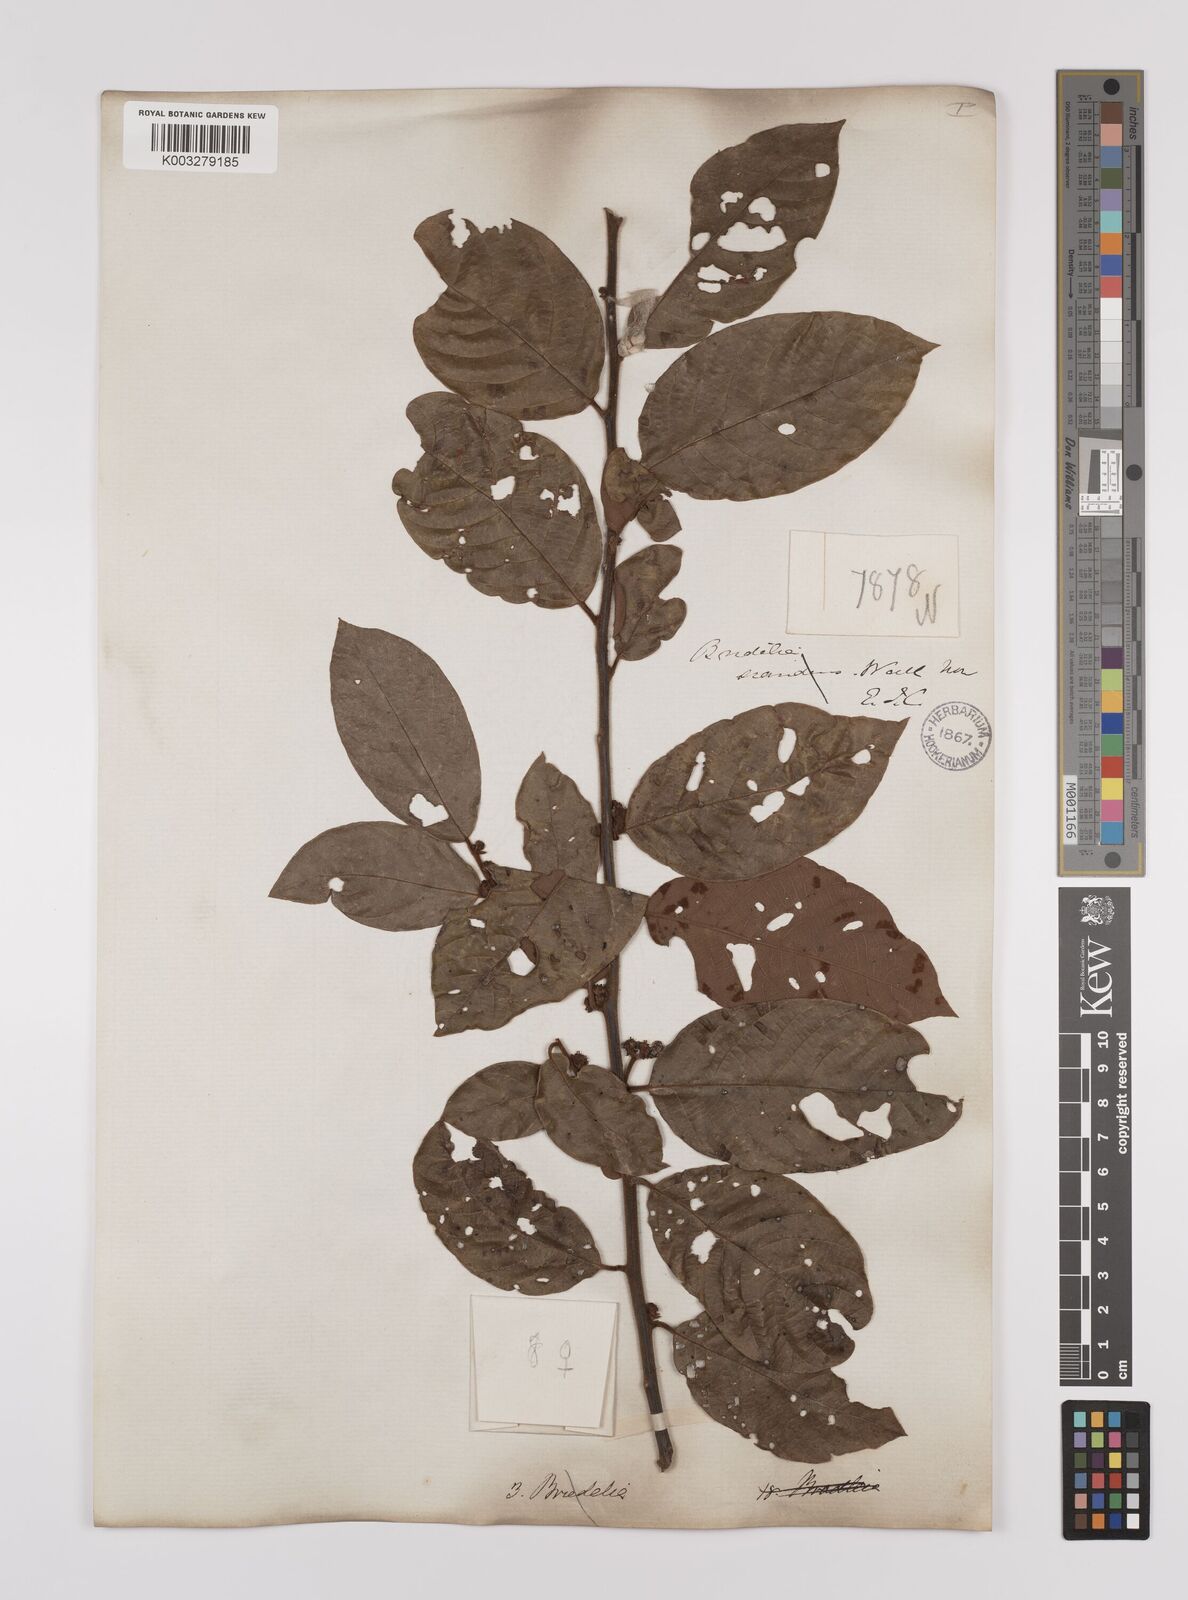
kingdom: Plantae
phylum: Tracheophyta
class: Magnoliopsida
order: Laurales
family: Lauraceae
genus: Litsea
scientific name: Litsea umbellata
